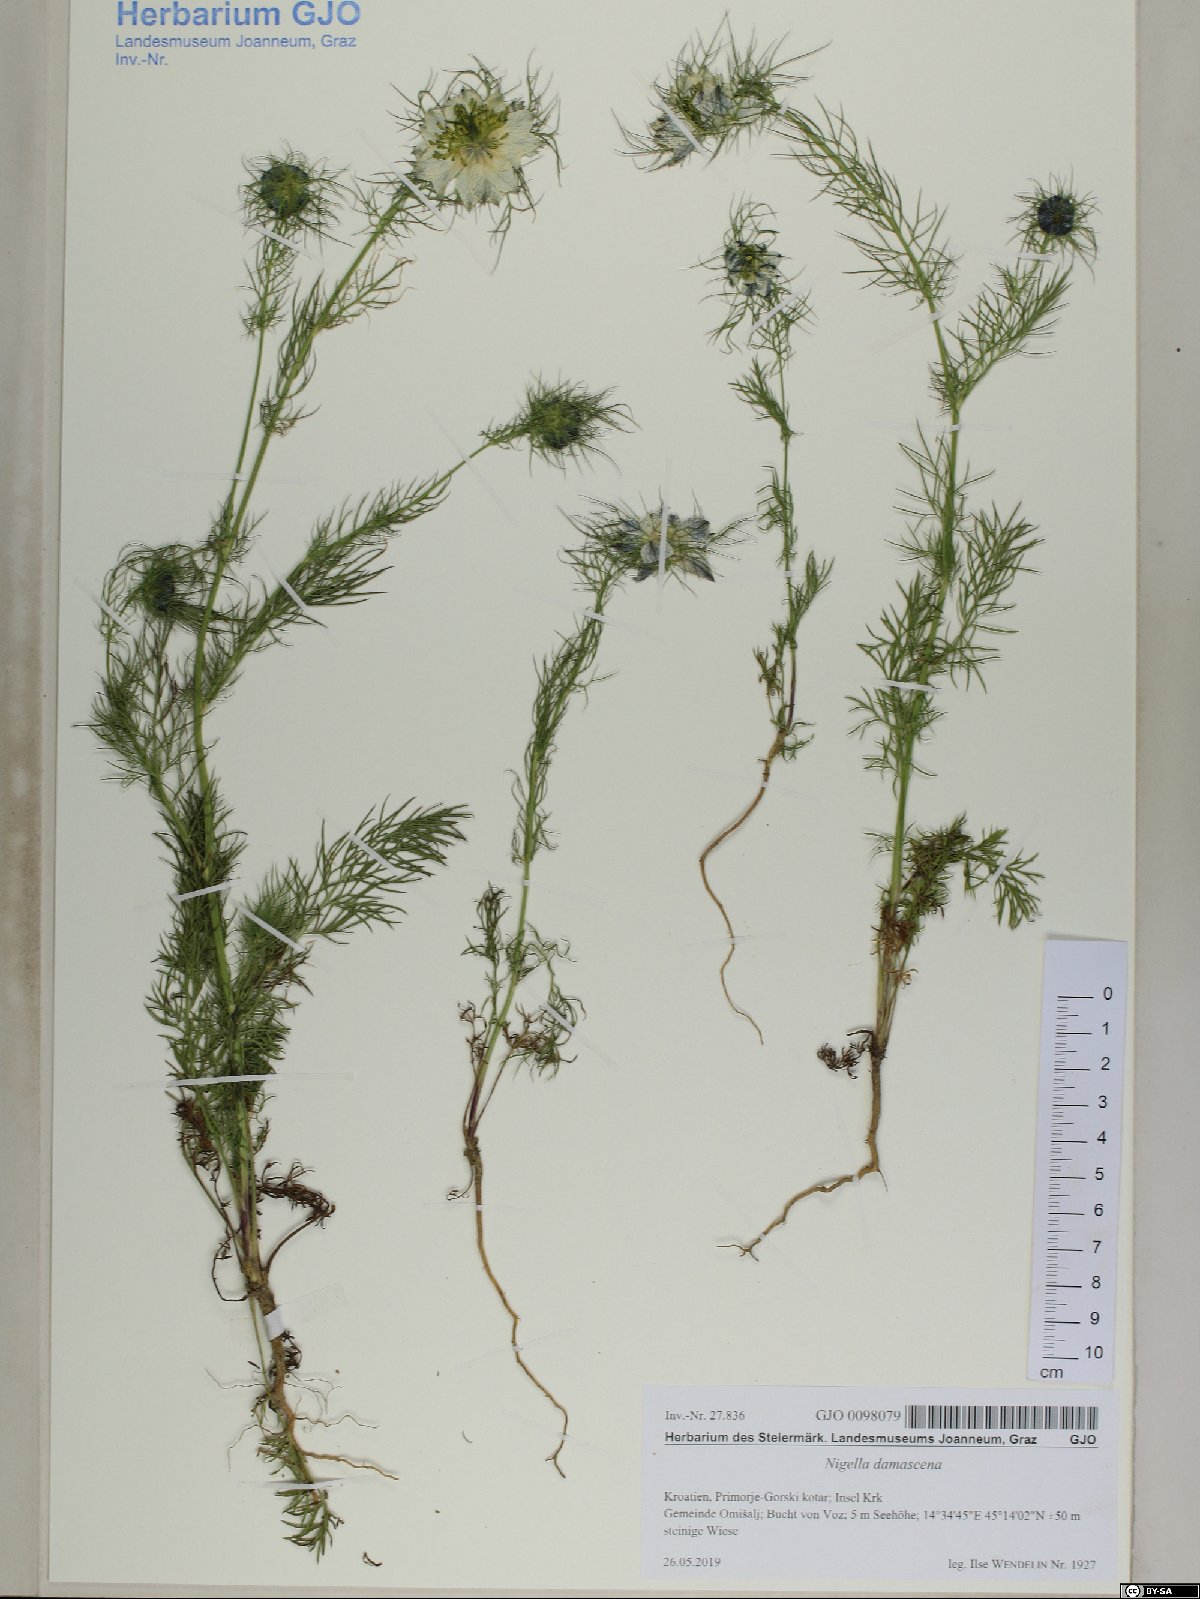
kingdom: Plantae
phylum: Tracheophyta
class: Magnoliopsida
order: Ranunculales
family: Ranunculaceae
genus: Nigella
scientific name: Nigella damascena
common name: Love-in-a-mist
